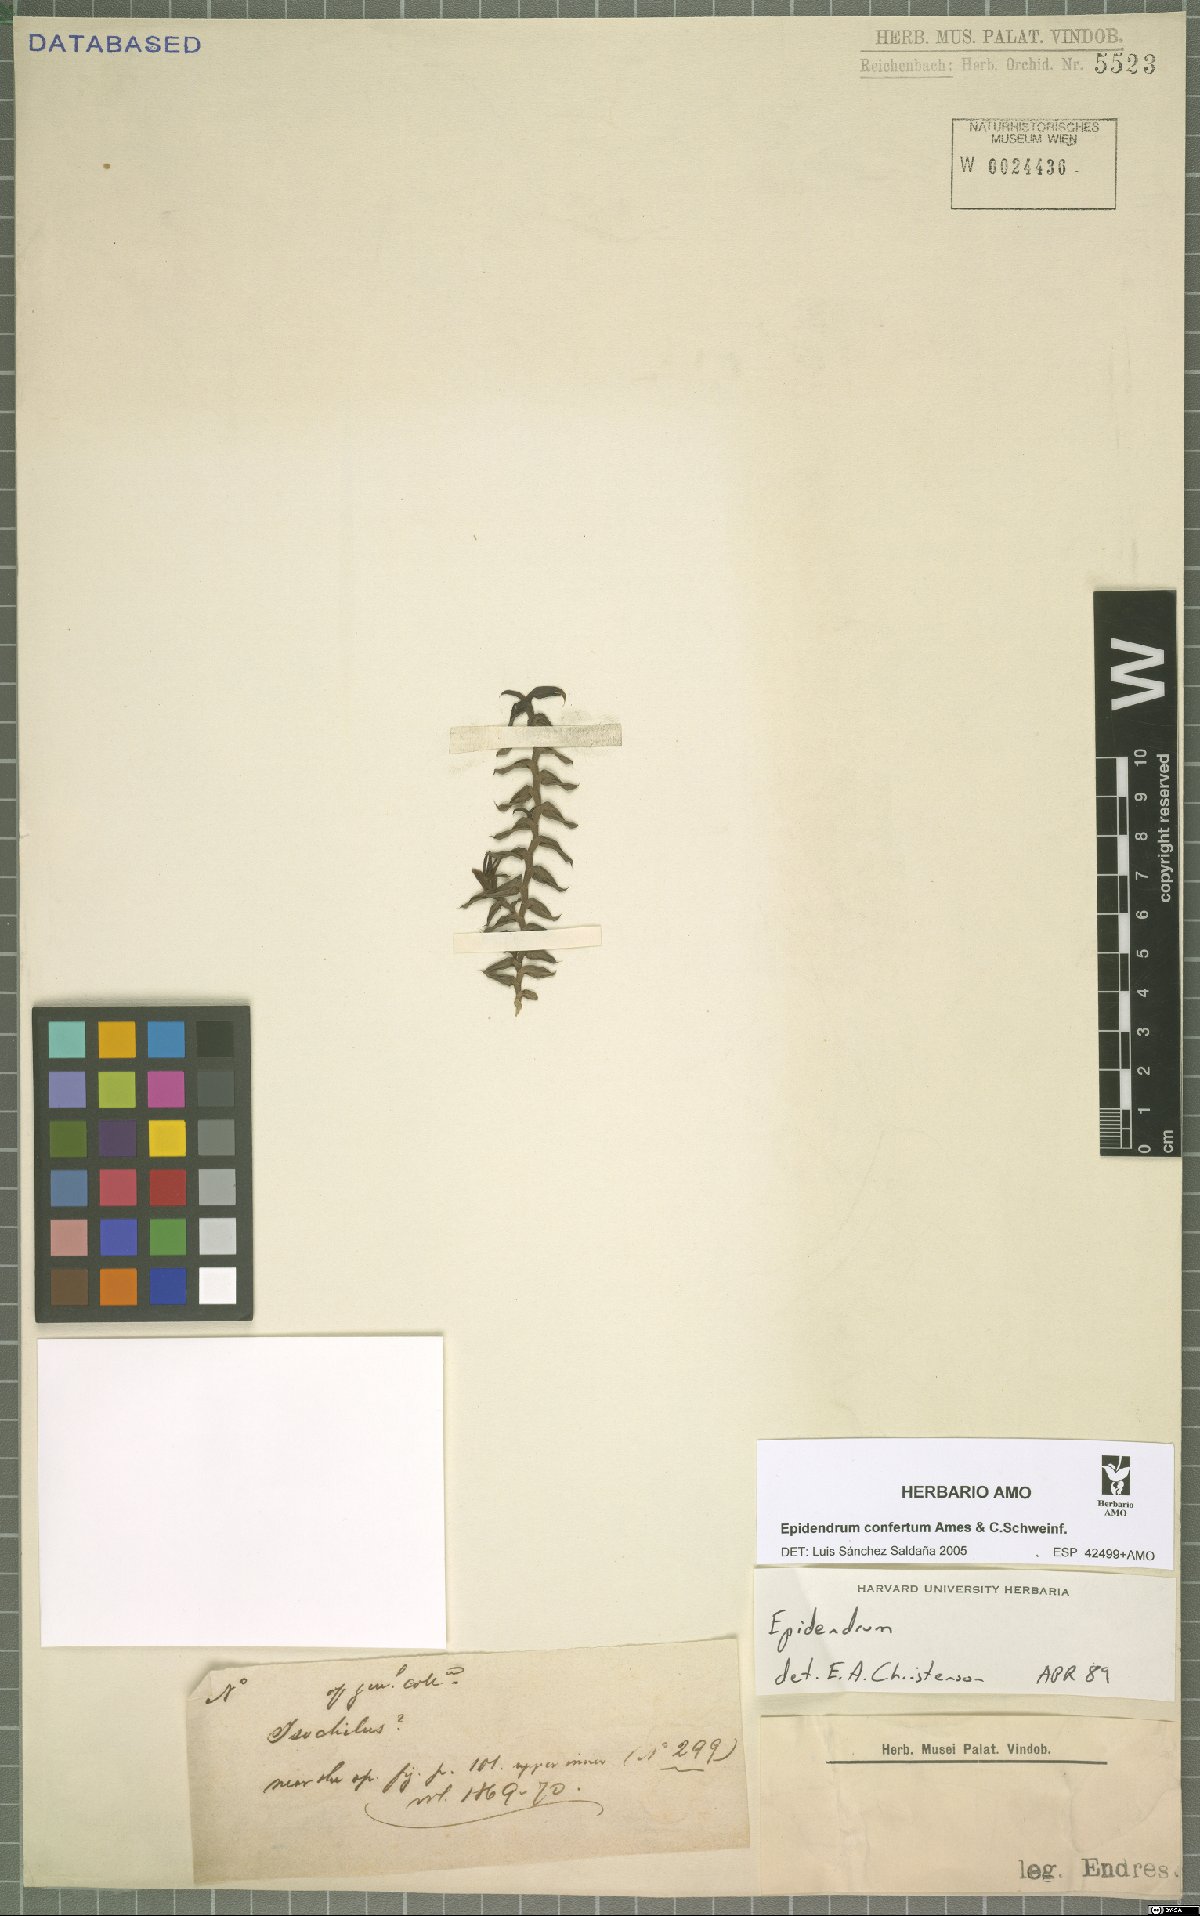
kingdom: Plantae
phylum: Tracheophyta
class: Liliopsida
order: Asparagales
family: Orchidaceae
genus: Epidendrum
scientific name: Epidendrum confertum
